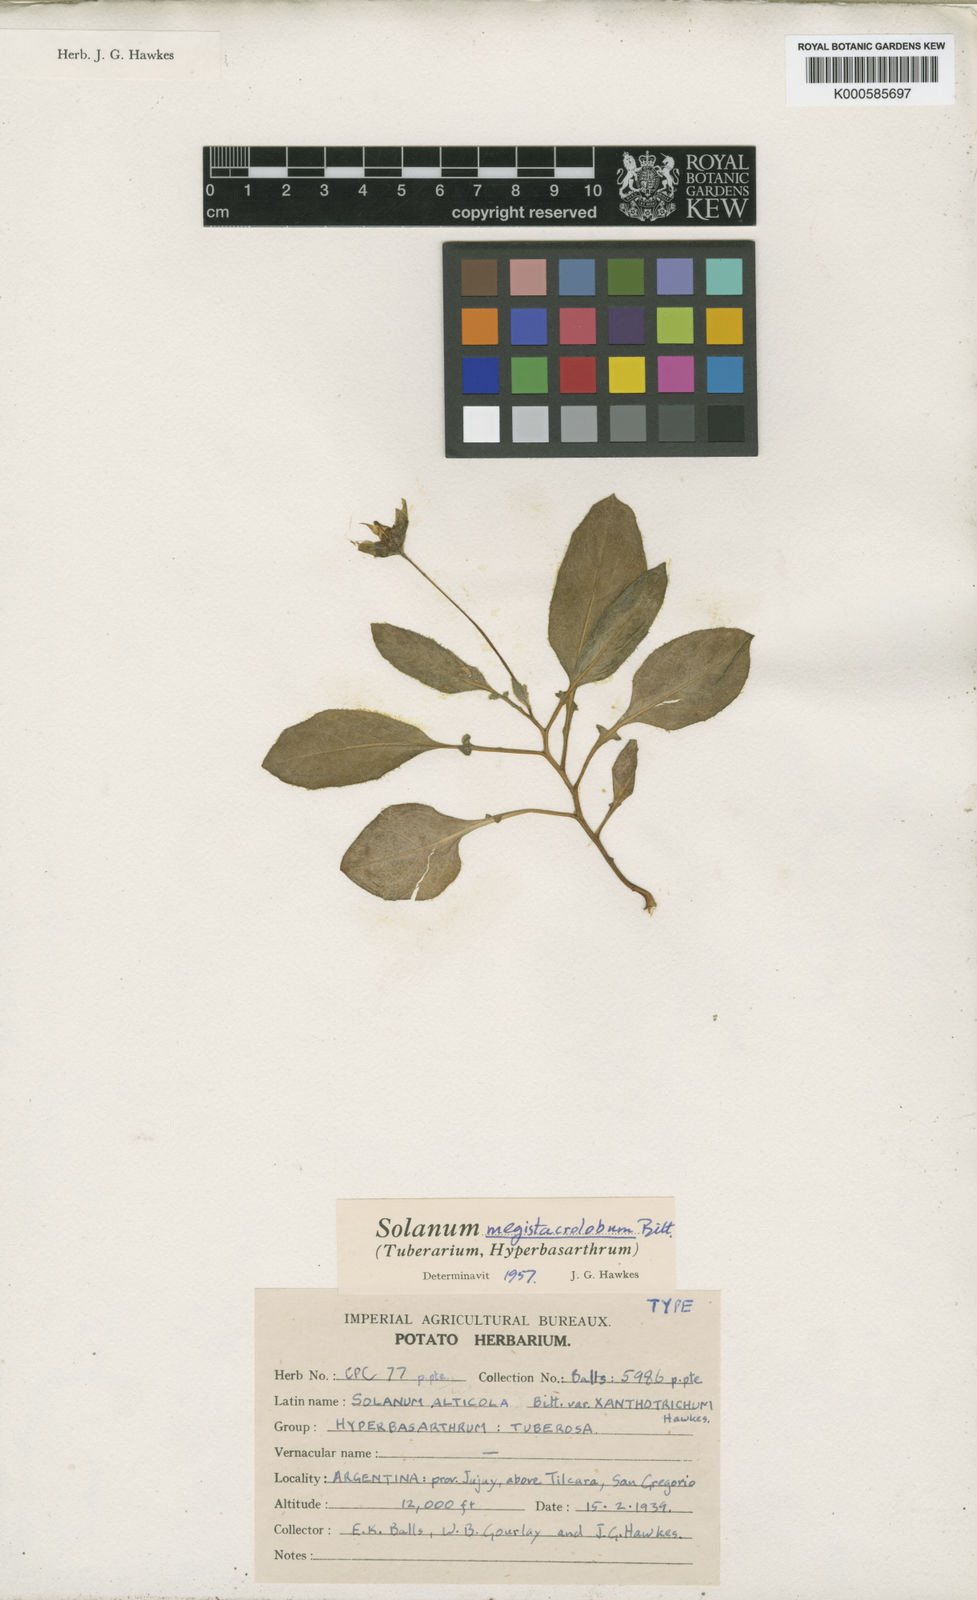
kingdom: Plantae
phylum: Tracheophyta
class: Magnoliopsida
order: Solanales
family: Solanaceae
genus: Solanum
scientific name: Solanum boliviense
